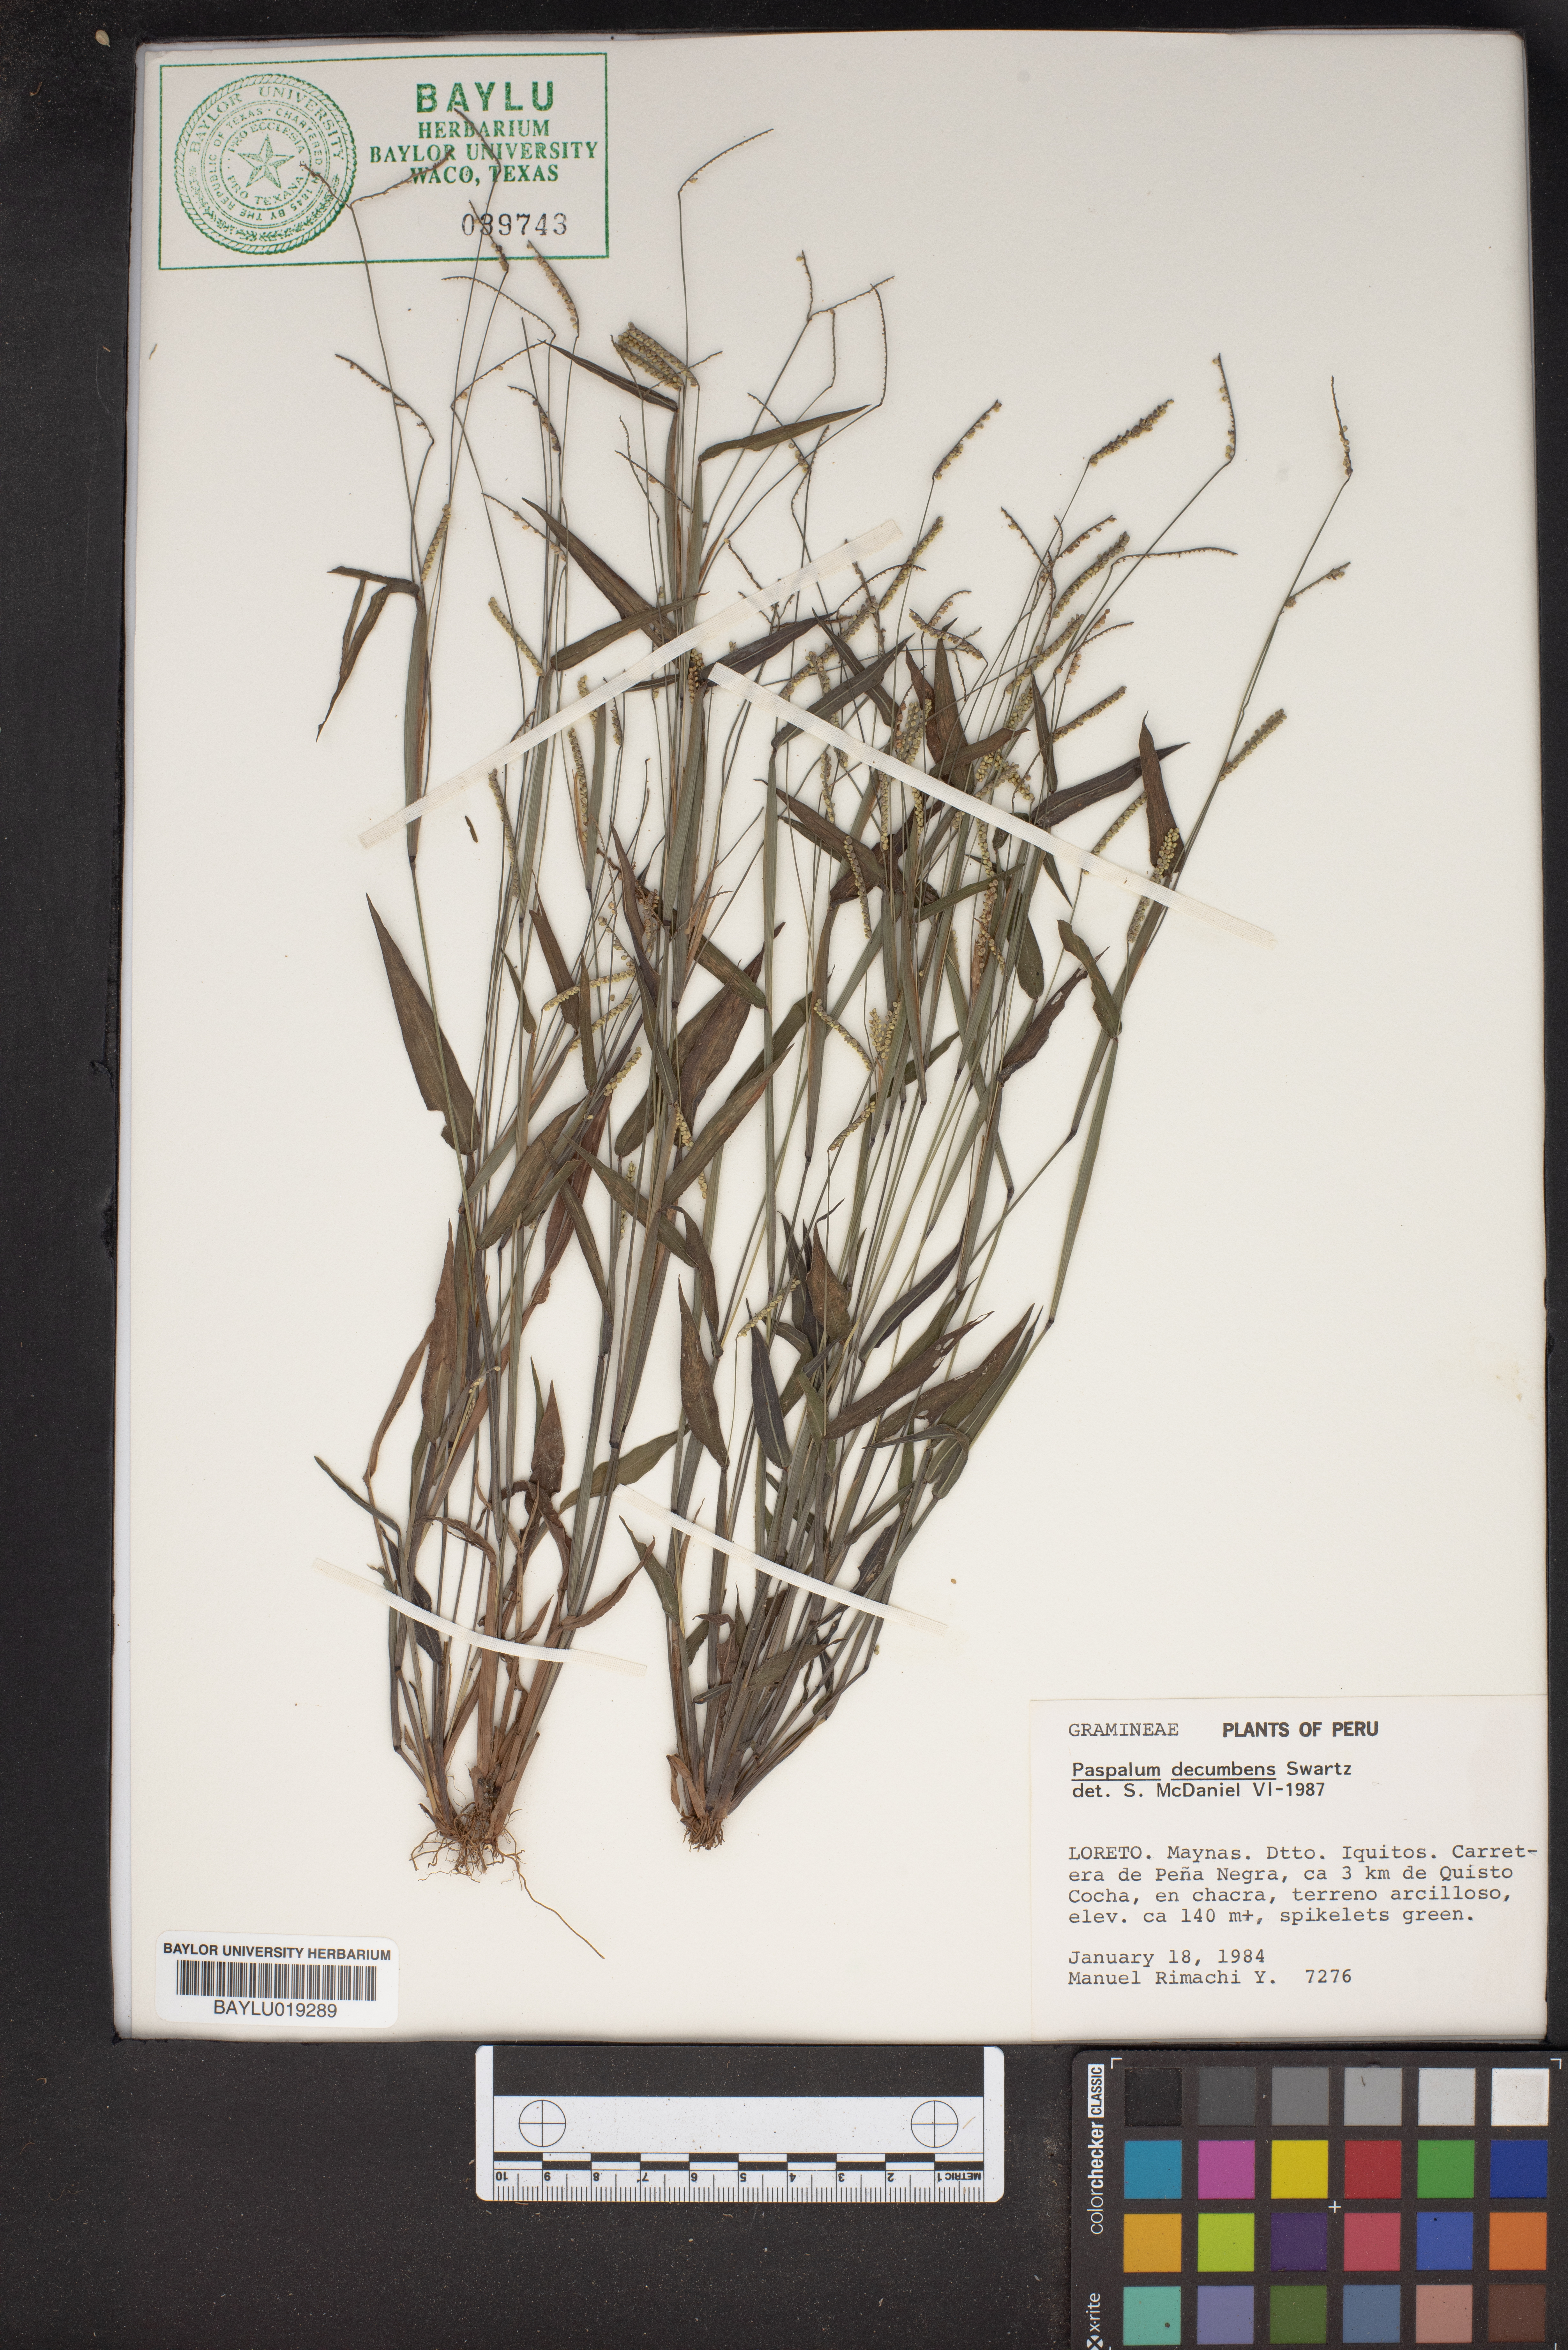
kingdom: Plantae
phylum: Tracheophyta
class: Liliopsida
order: Poales
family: Poaceae
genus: Paspalum
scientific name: Paspalum decumbens
